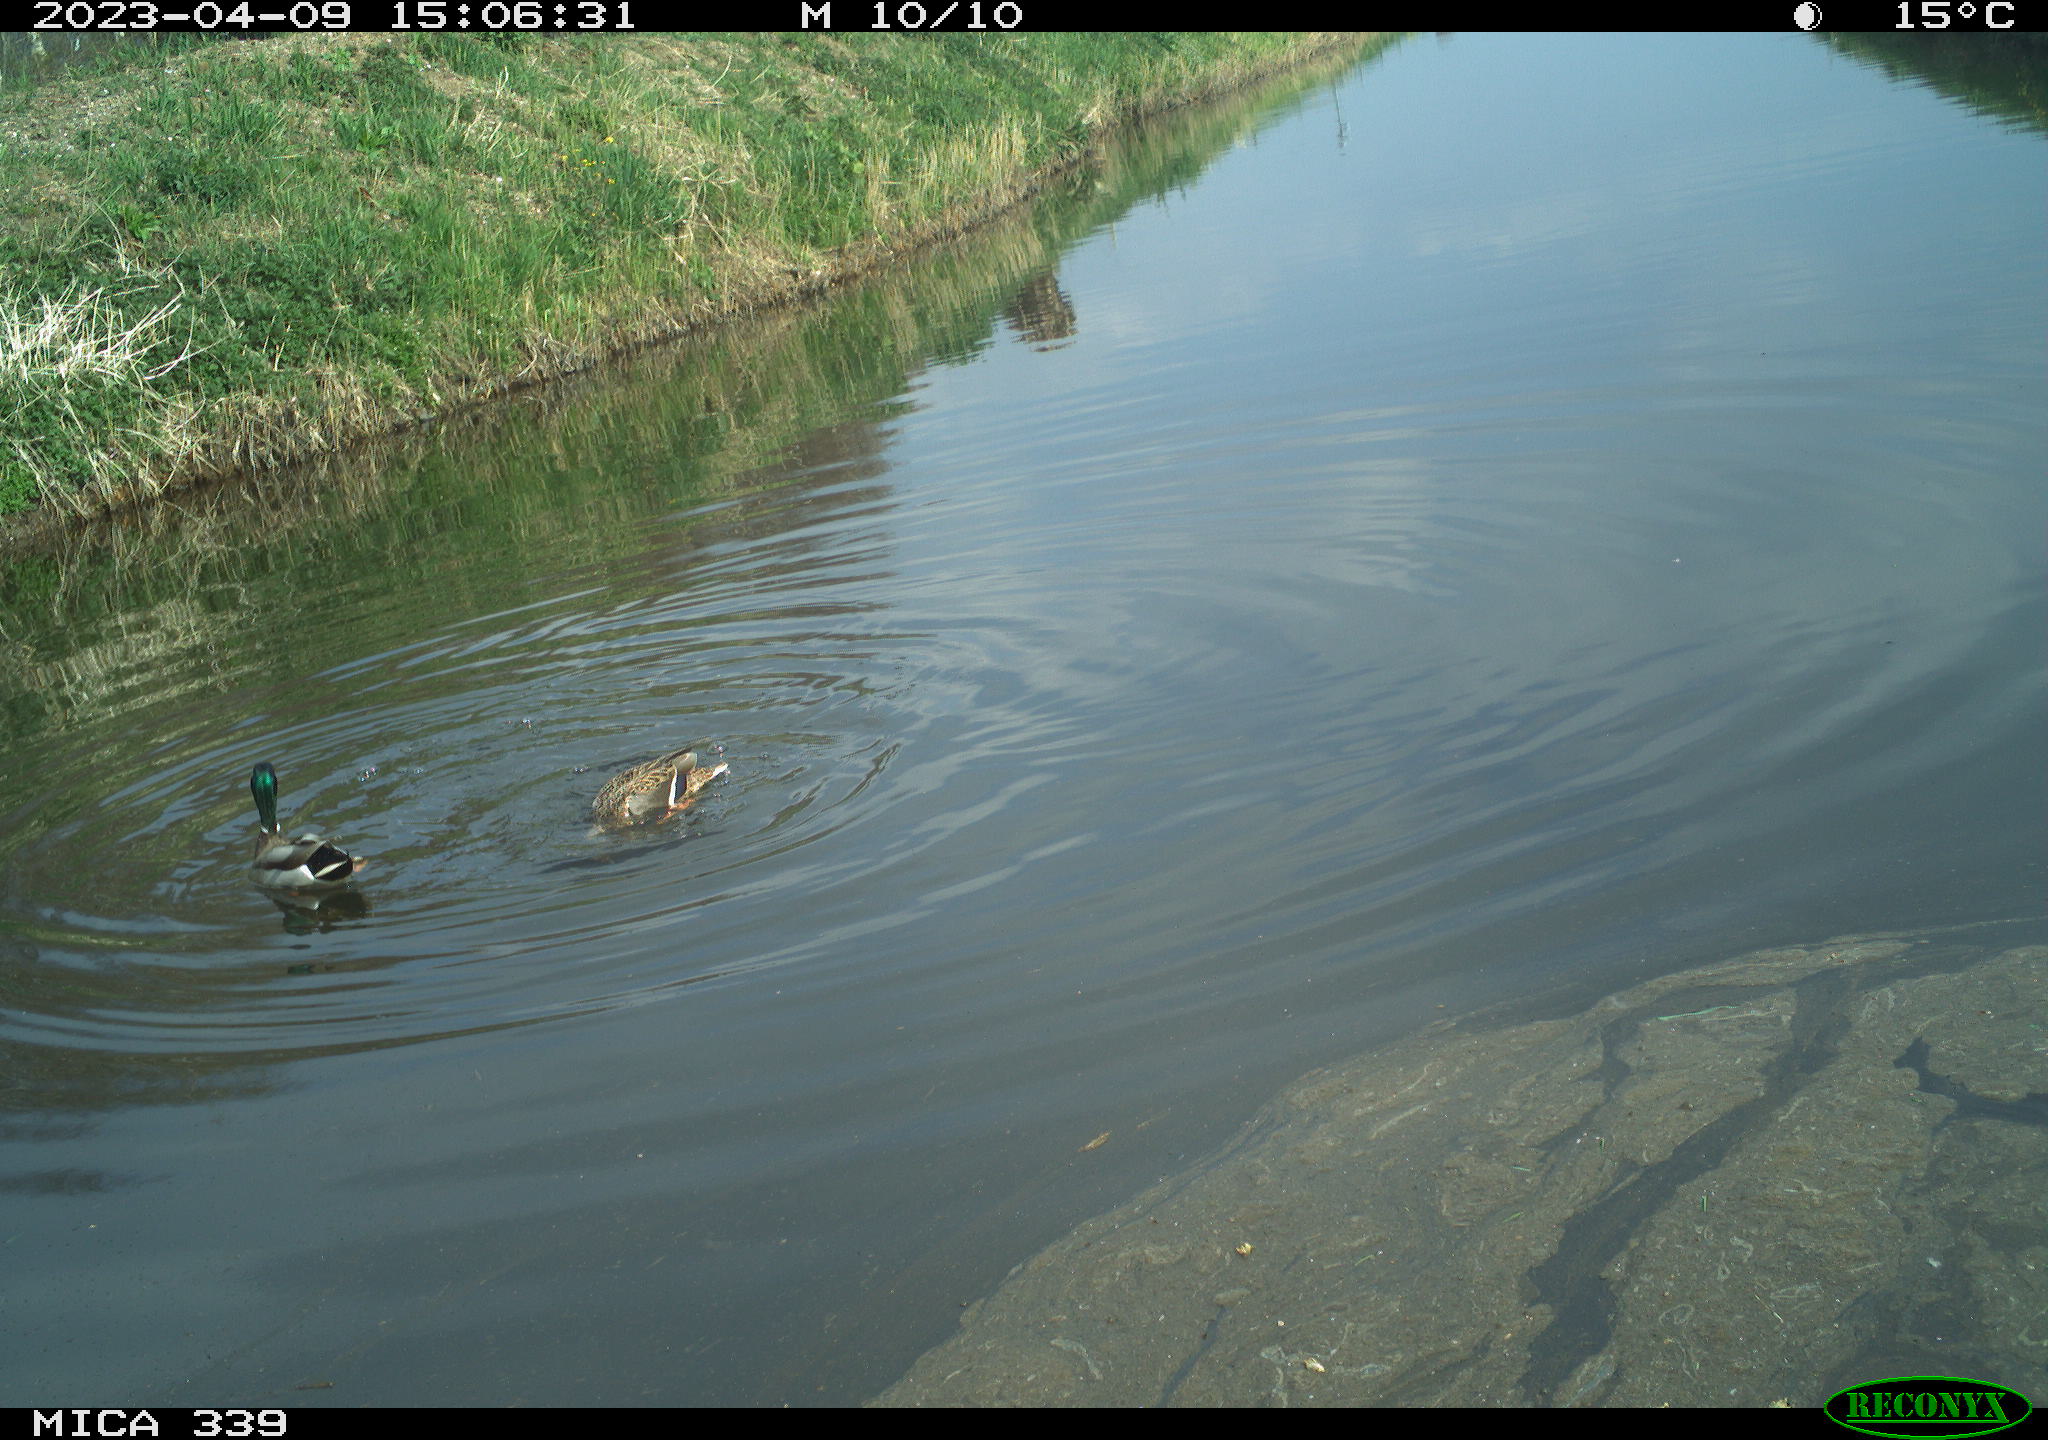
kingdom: Animalia
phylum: Chordata
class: Aves
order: Anseriformes
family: Anatidae
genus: Anas
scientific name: Anas platyrhynchos
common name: Mallard
